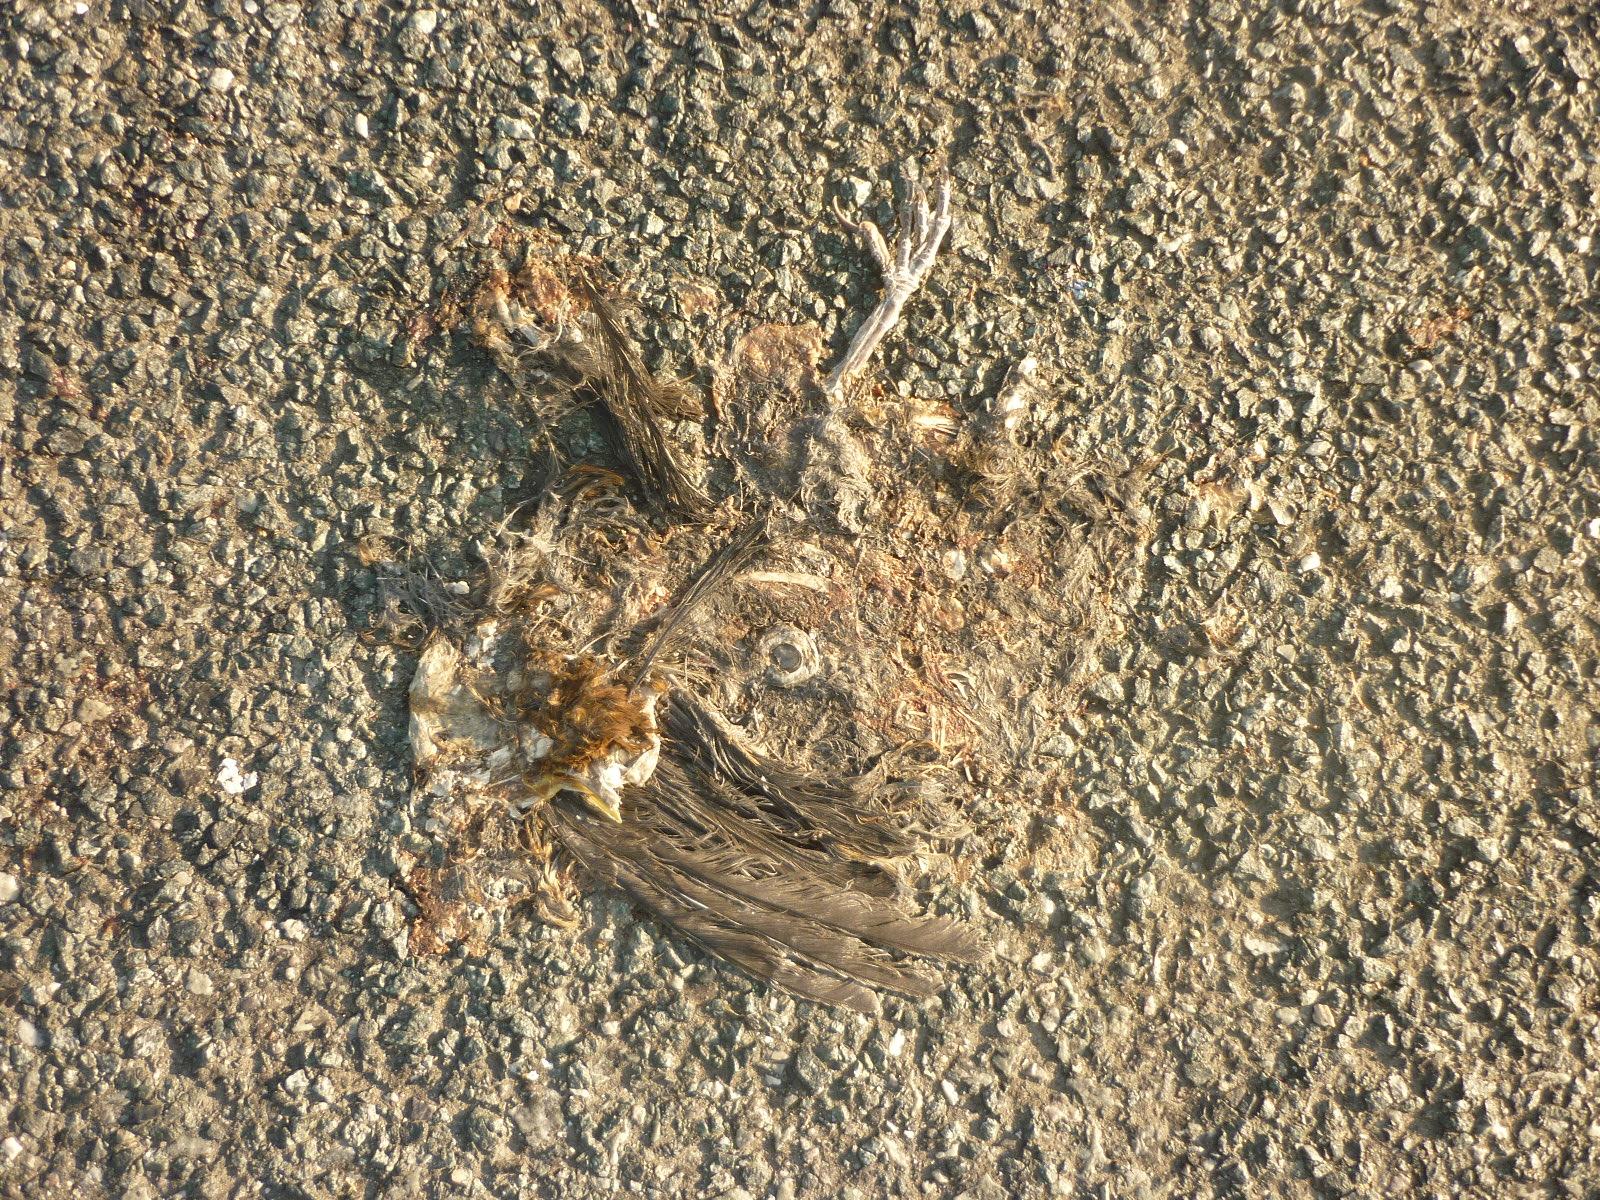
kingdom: Animalia
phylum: Chordata
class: Aves
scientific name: Aves
